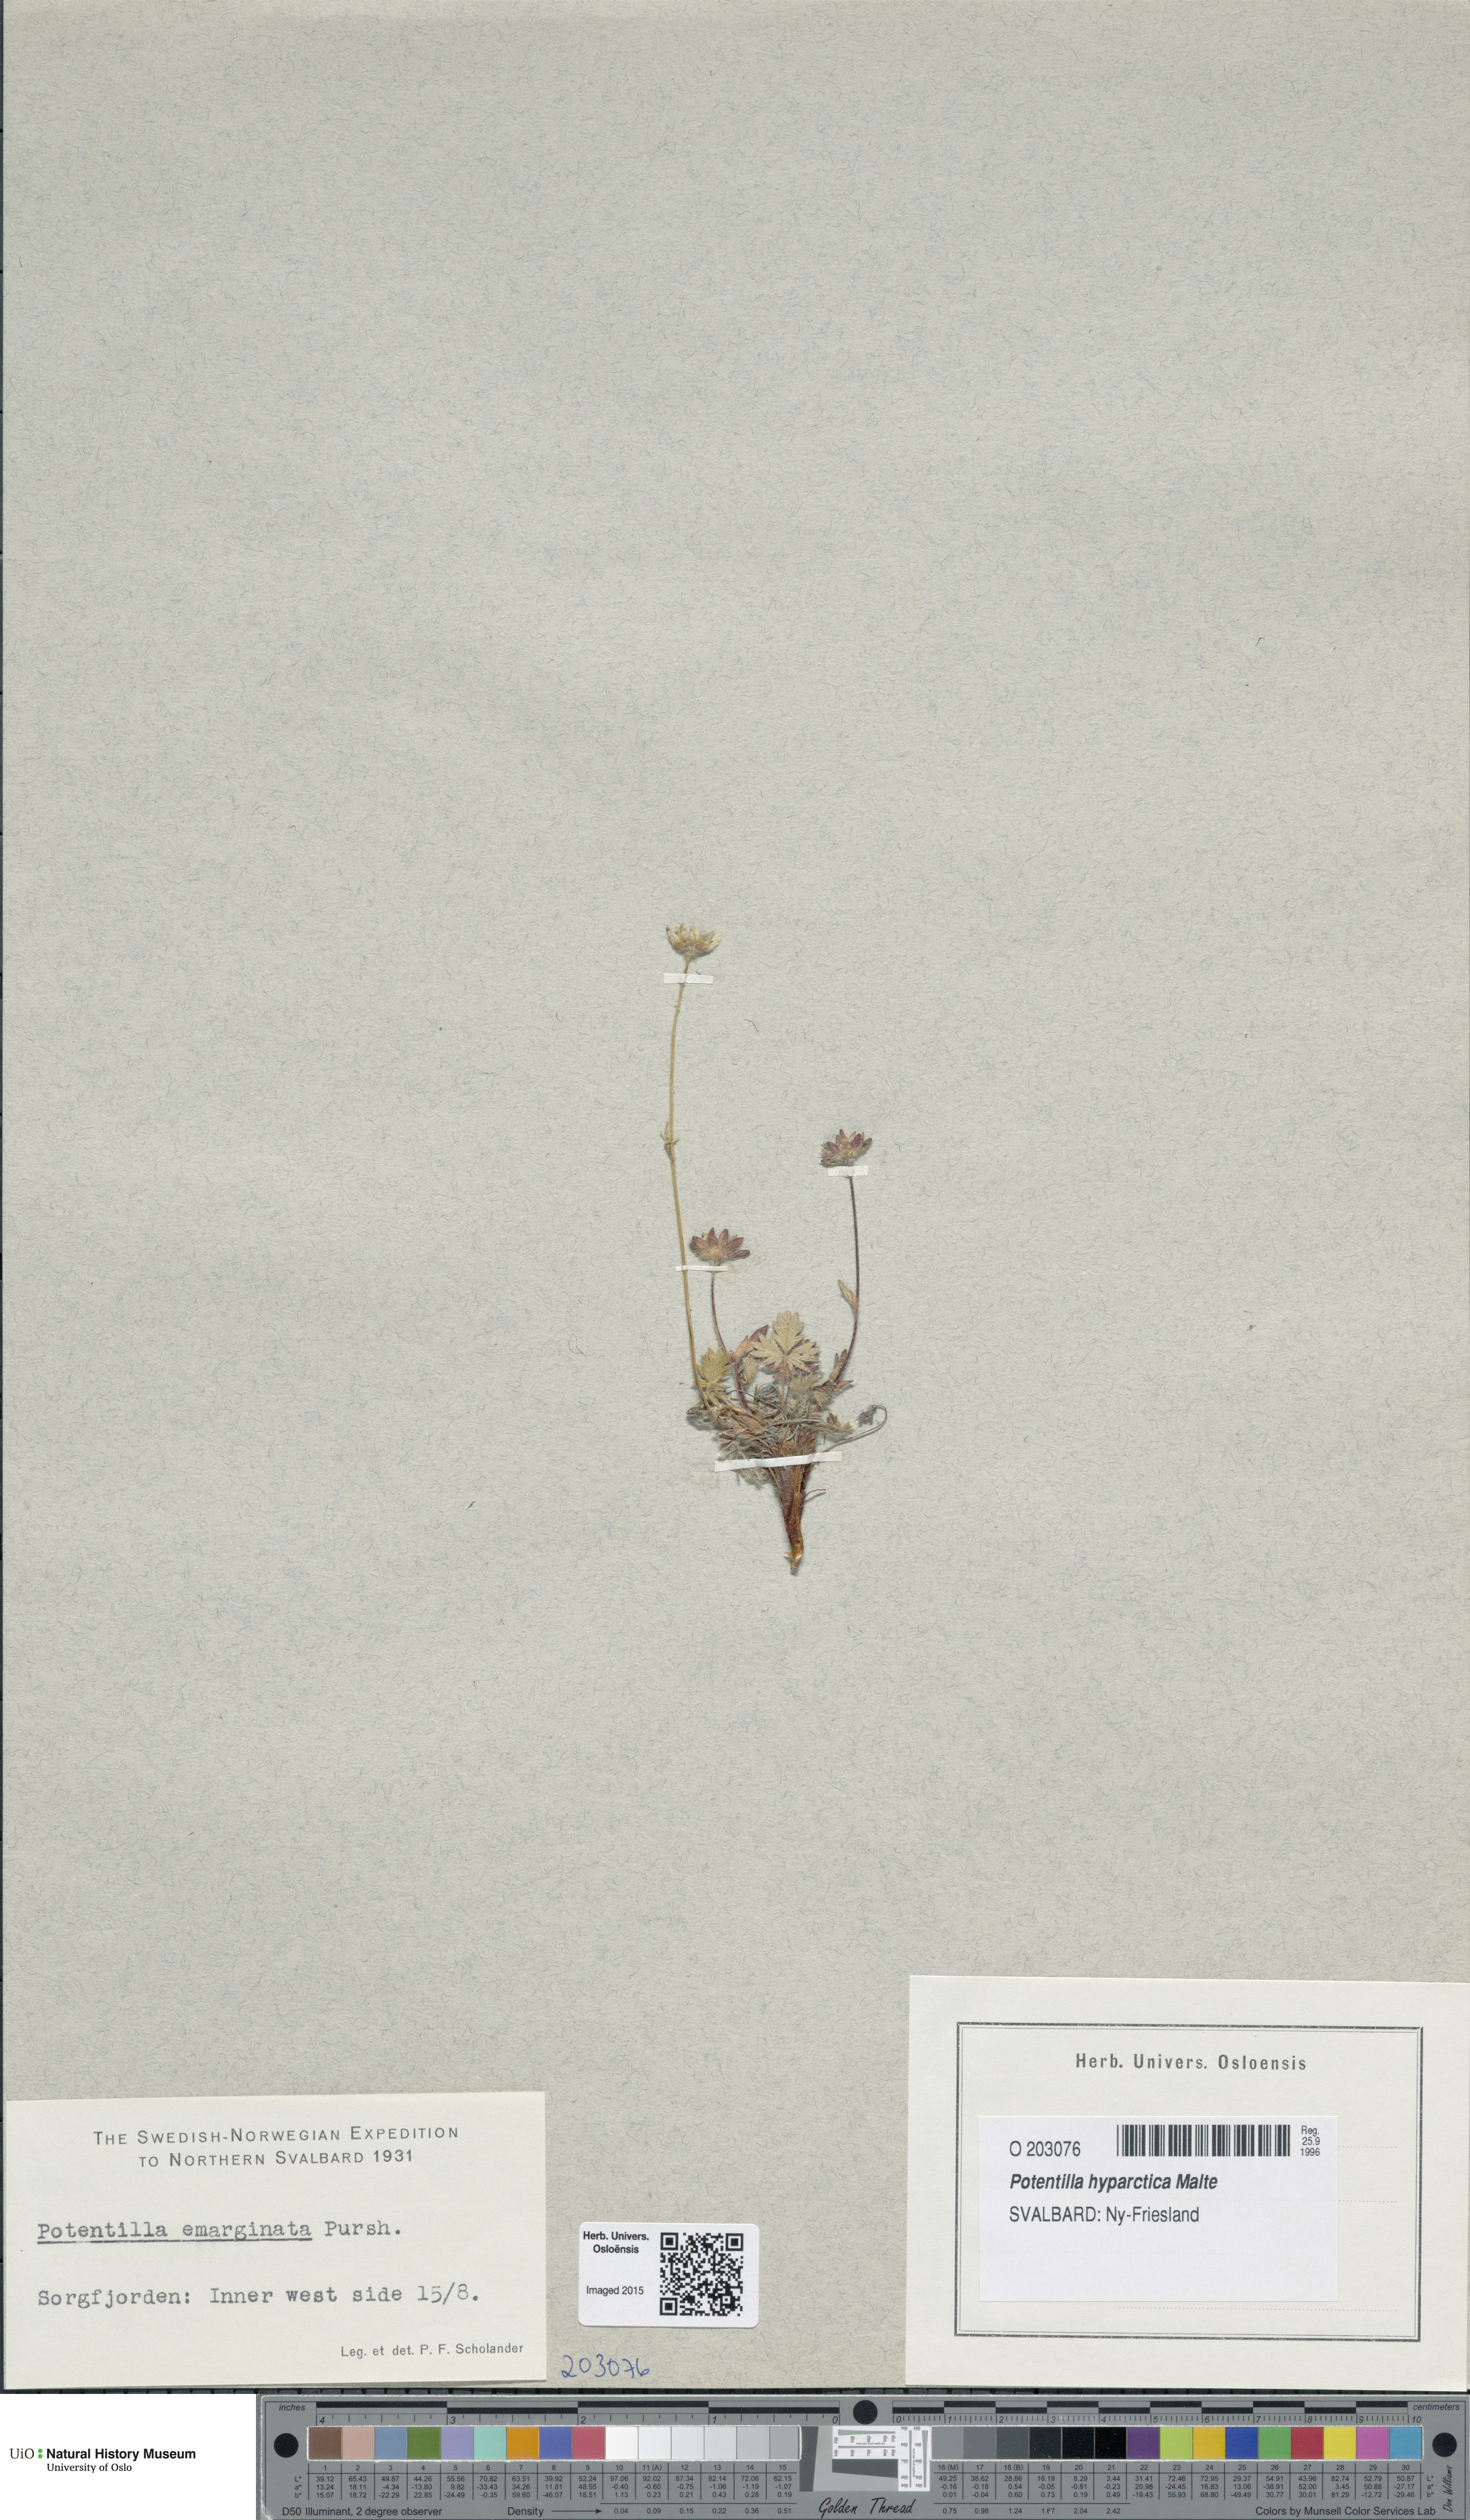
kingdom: Plantae
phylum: Tracheophyta
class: Magnoliopsida
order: Rosales
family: Rosaceae
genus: Potentilla
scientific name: Potentilla hyparctica
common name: Arctic cinquefoil
